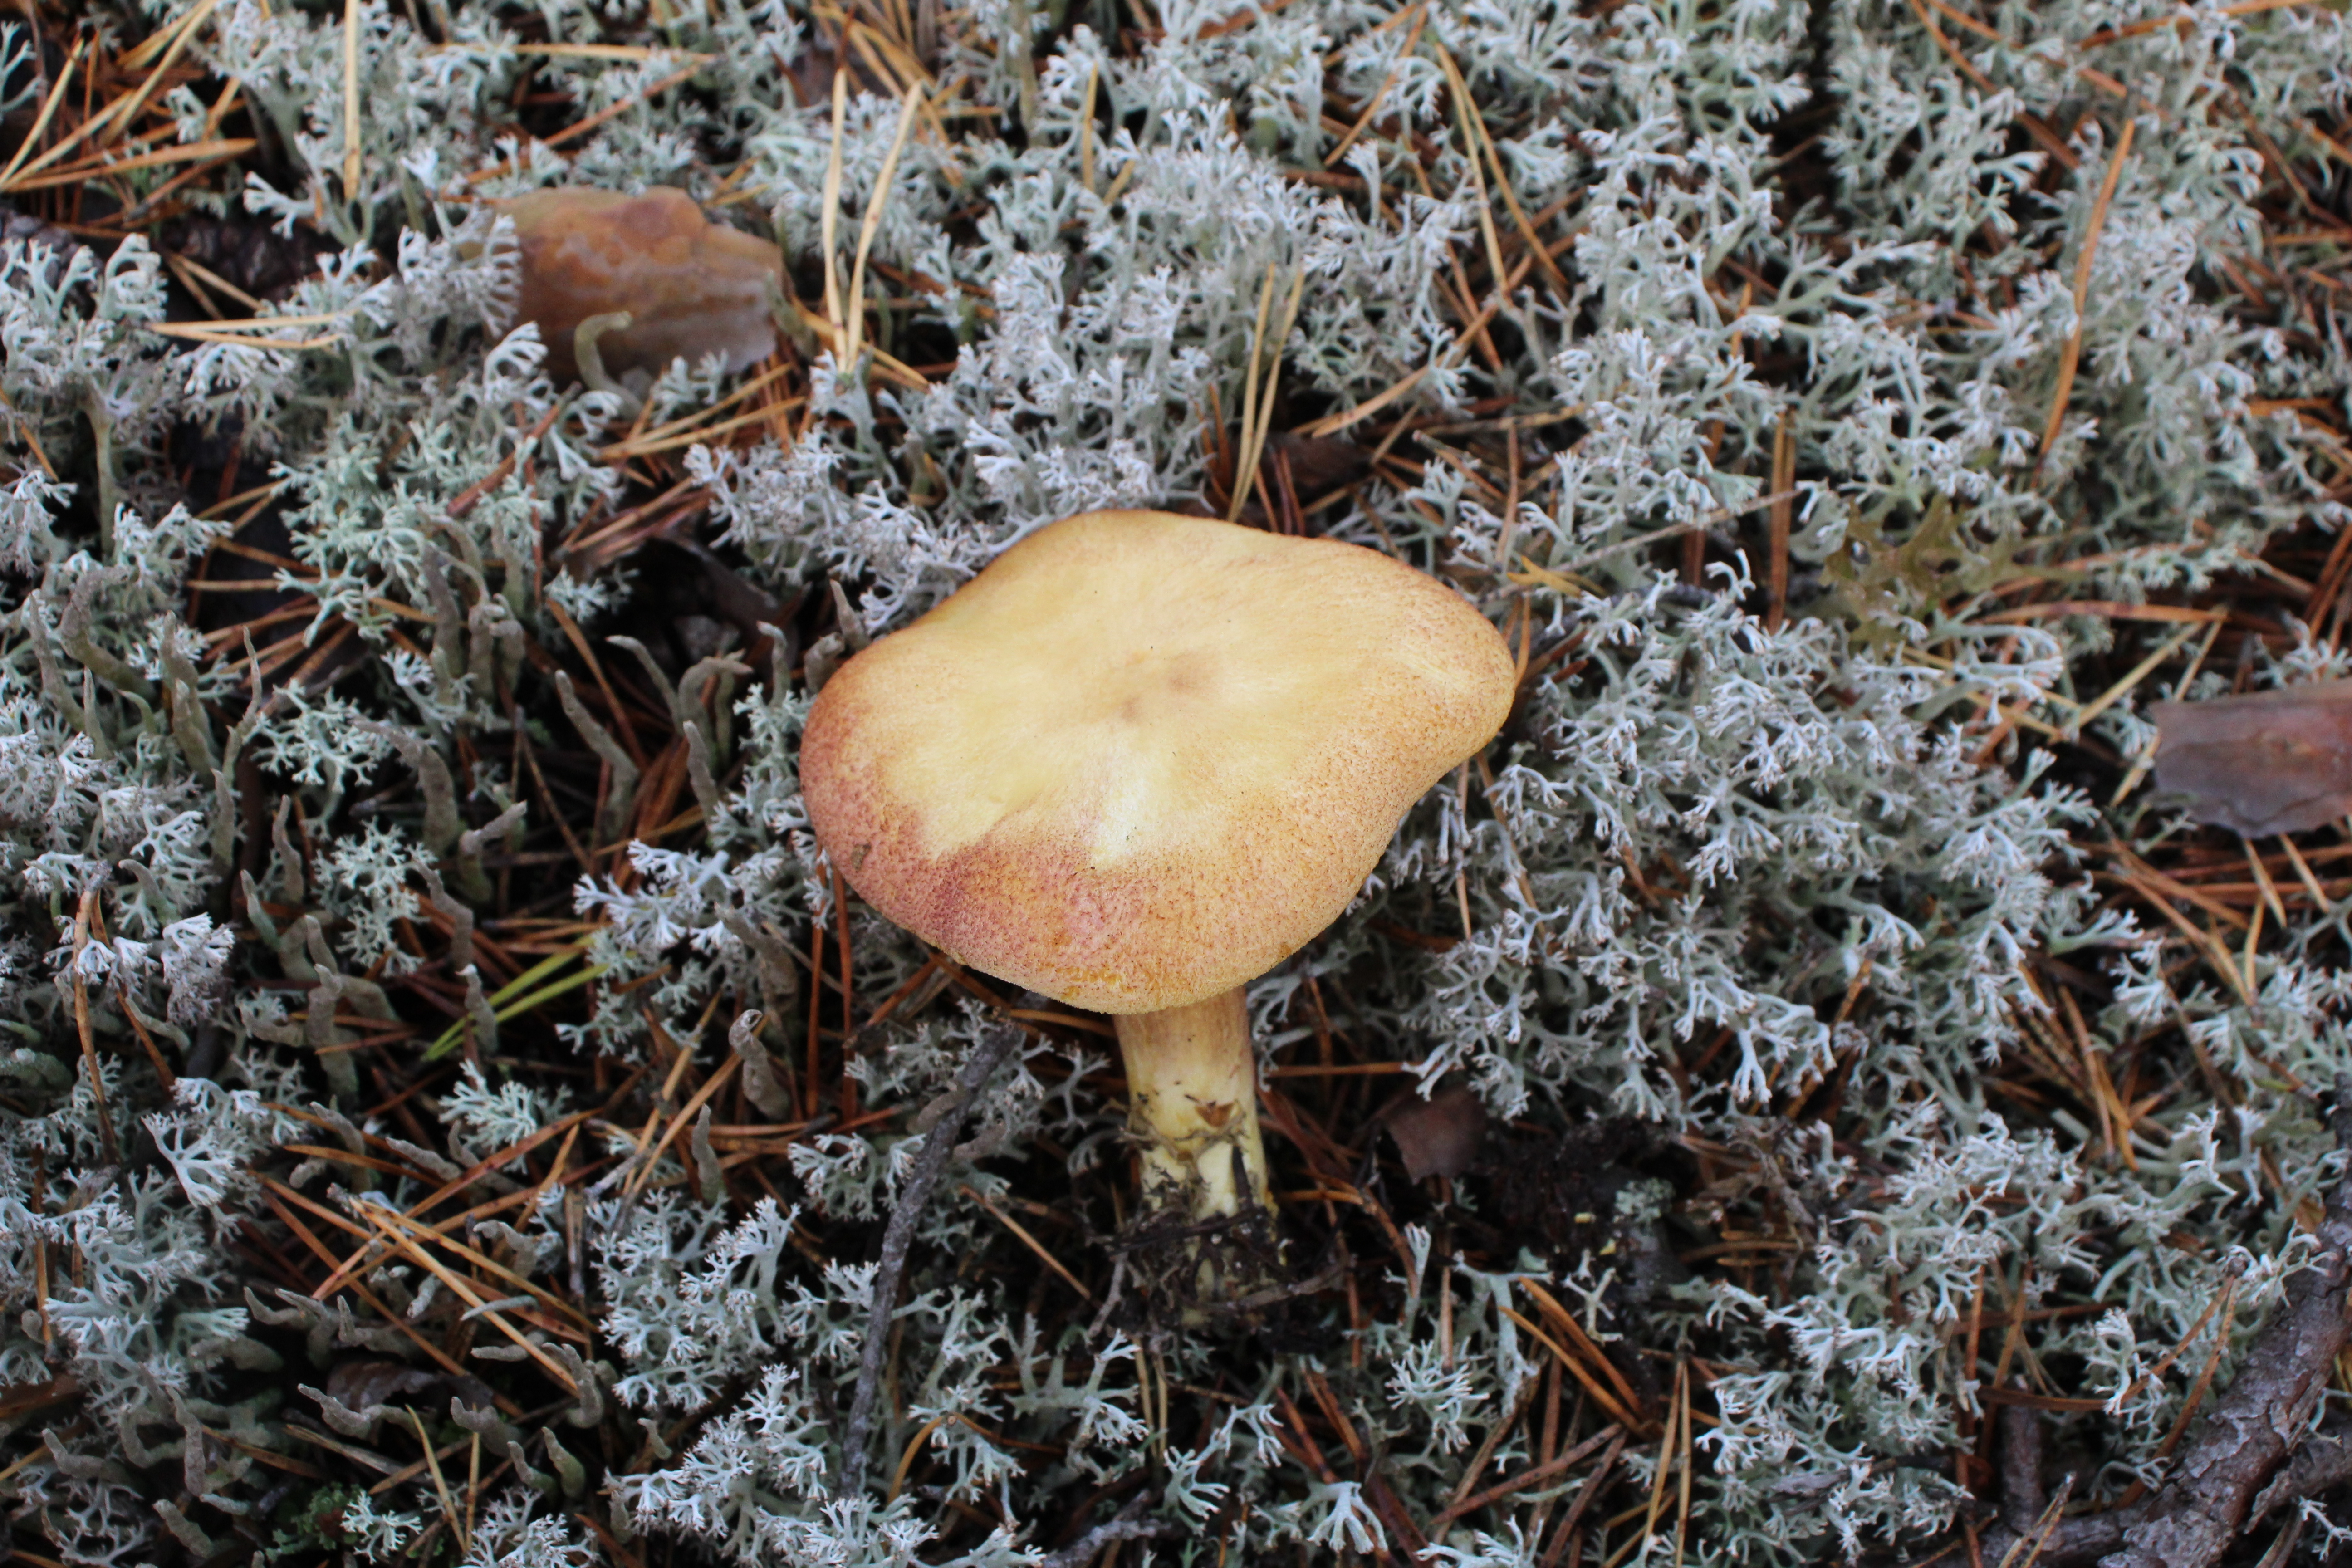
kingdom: Fungi
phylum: Basidiomycota
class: Agaricomycetes
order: Agaricales
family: Tricholomataceae
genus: Tricholomopsis
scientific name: Tricholomopsis rutilans
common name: Plums and custard
